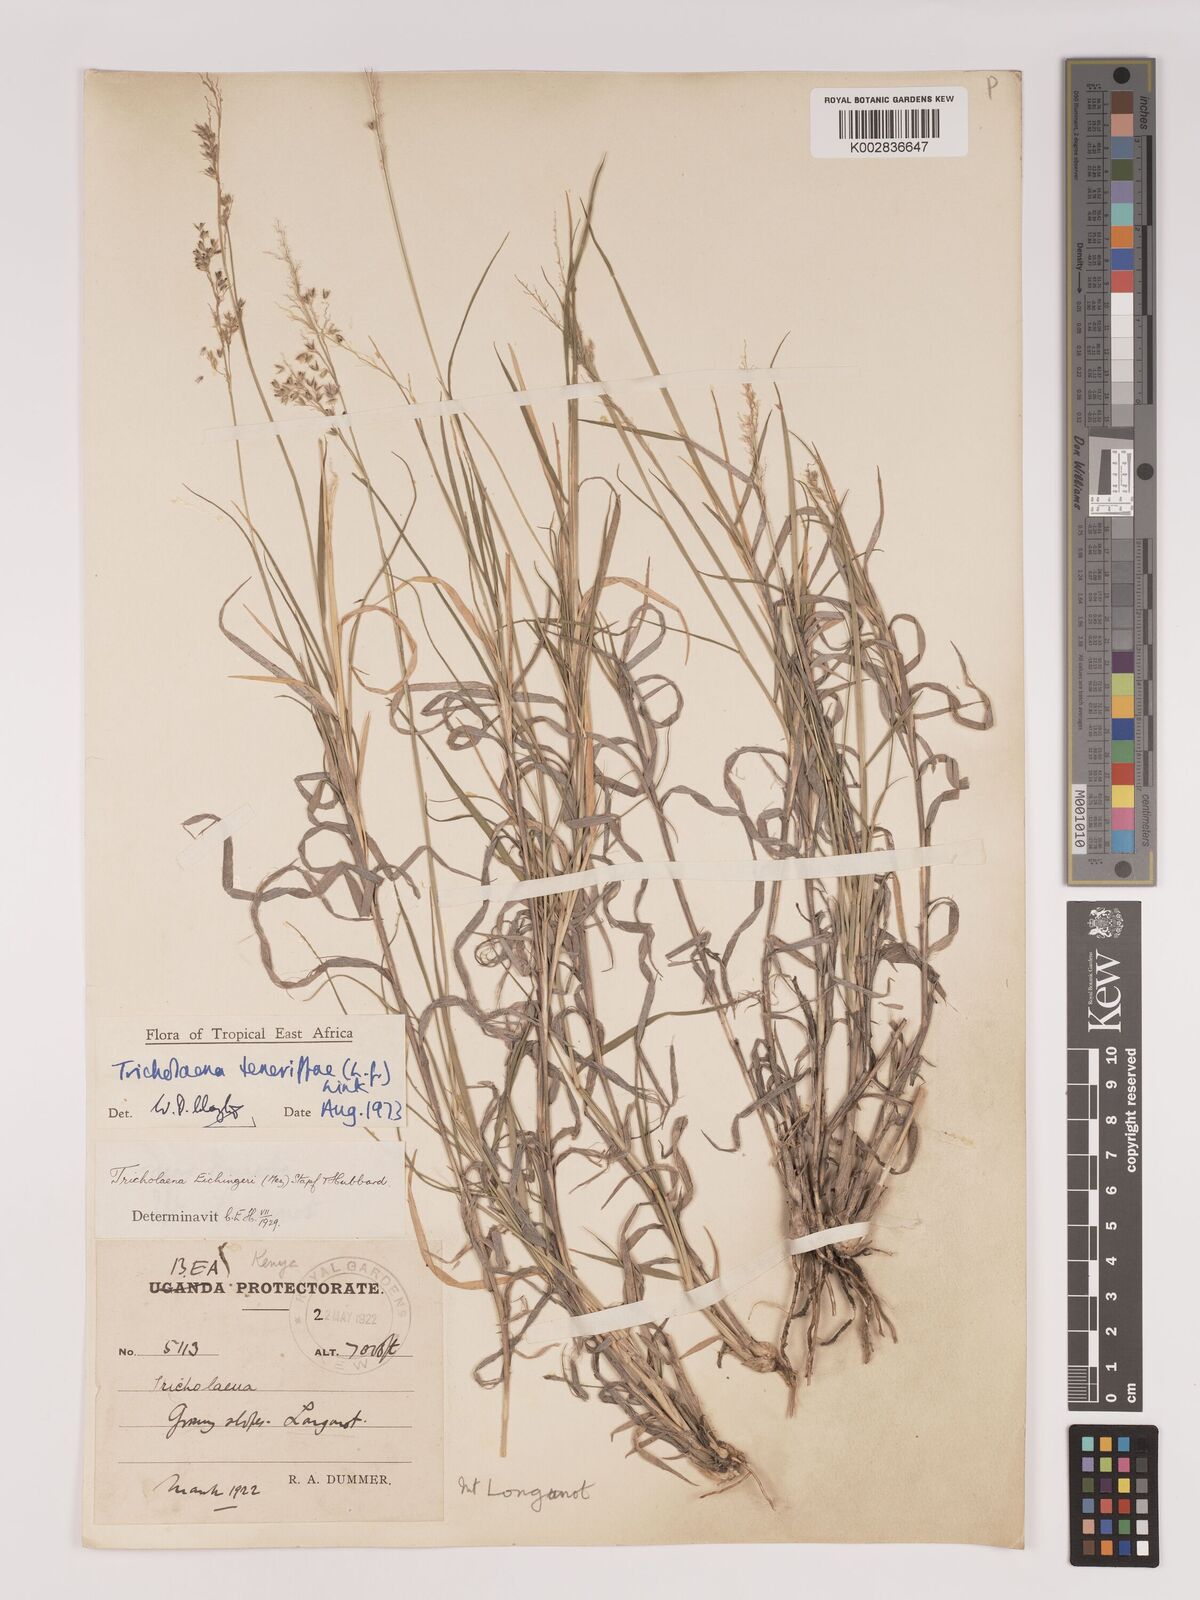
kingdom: Plantae
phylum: Tracheophyta
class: Liliopsida
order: Poales
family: Poaceae
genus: Tricholaena
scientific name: Tricholaena teneriffae
